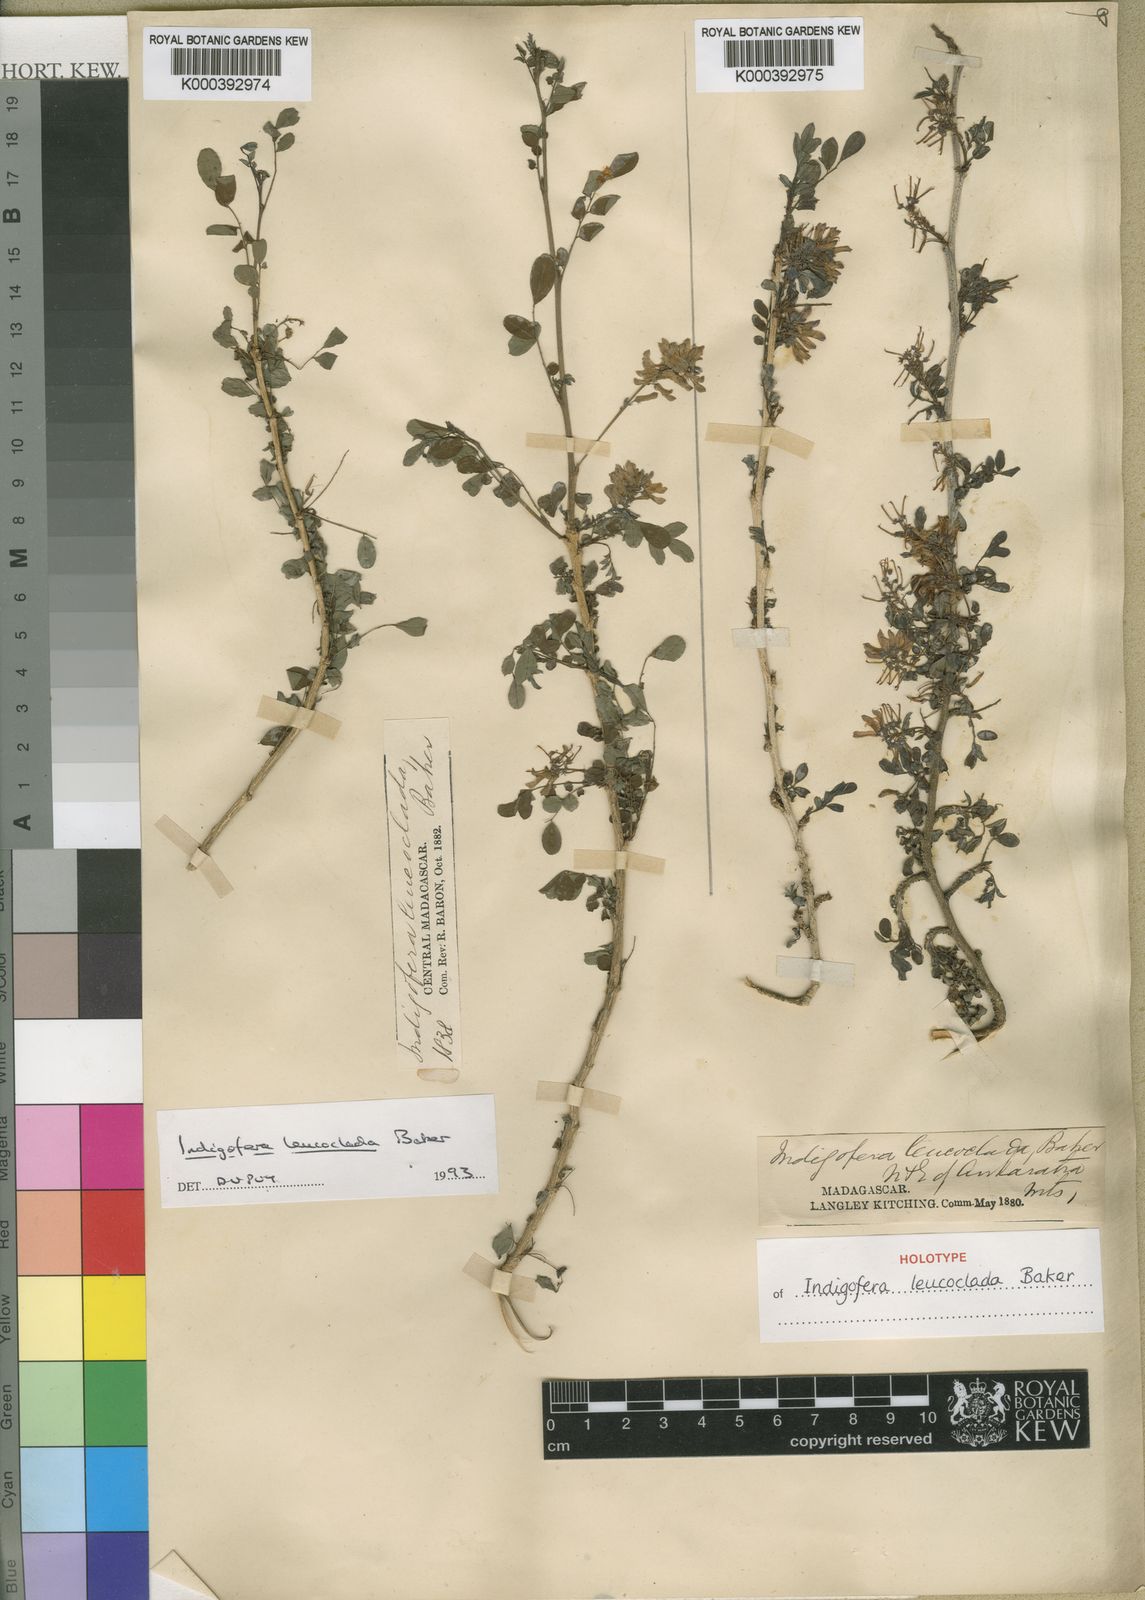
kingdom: Plantae
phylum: Tracheophyta
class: Magnoliopsida
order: Fabales
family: Fabaceae
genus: Indigofera
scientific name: Indigofera leucoclada
